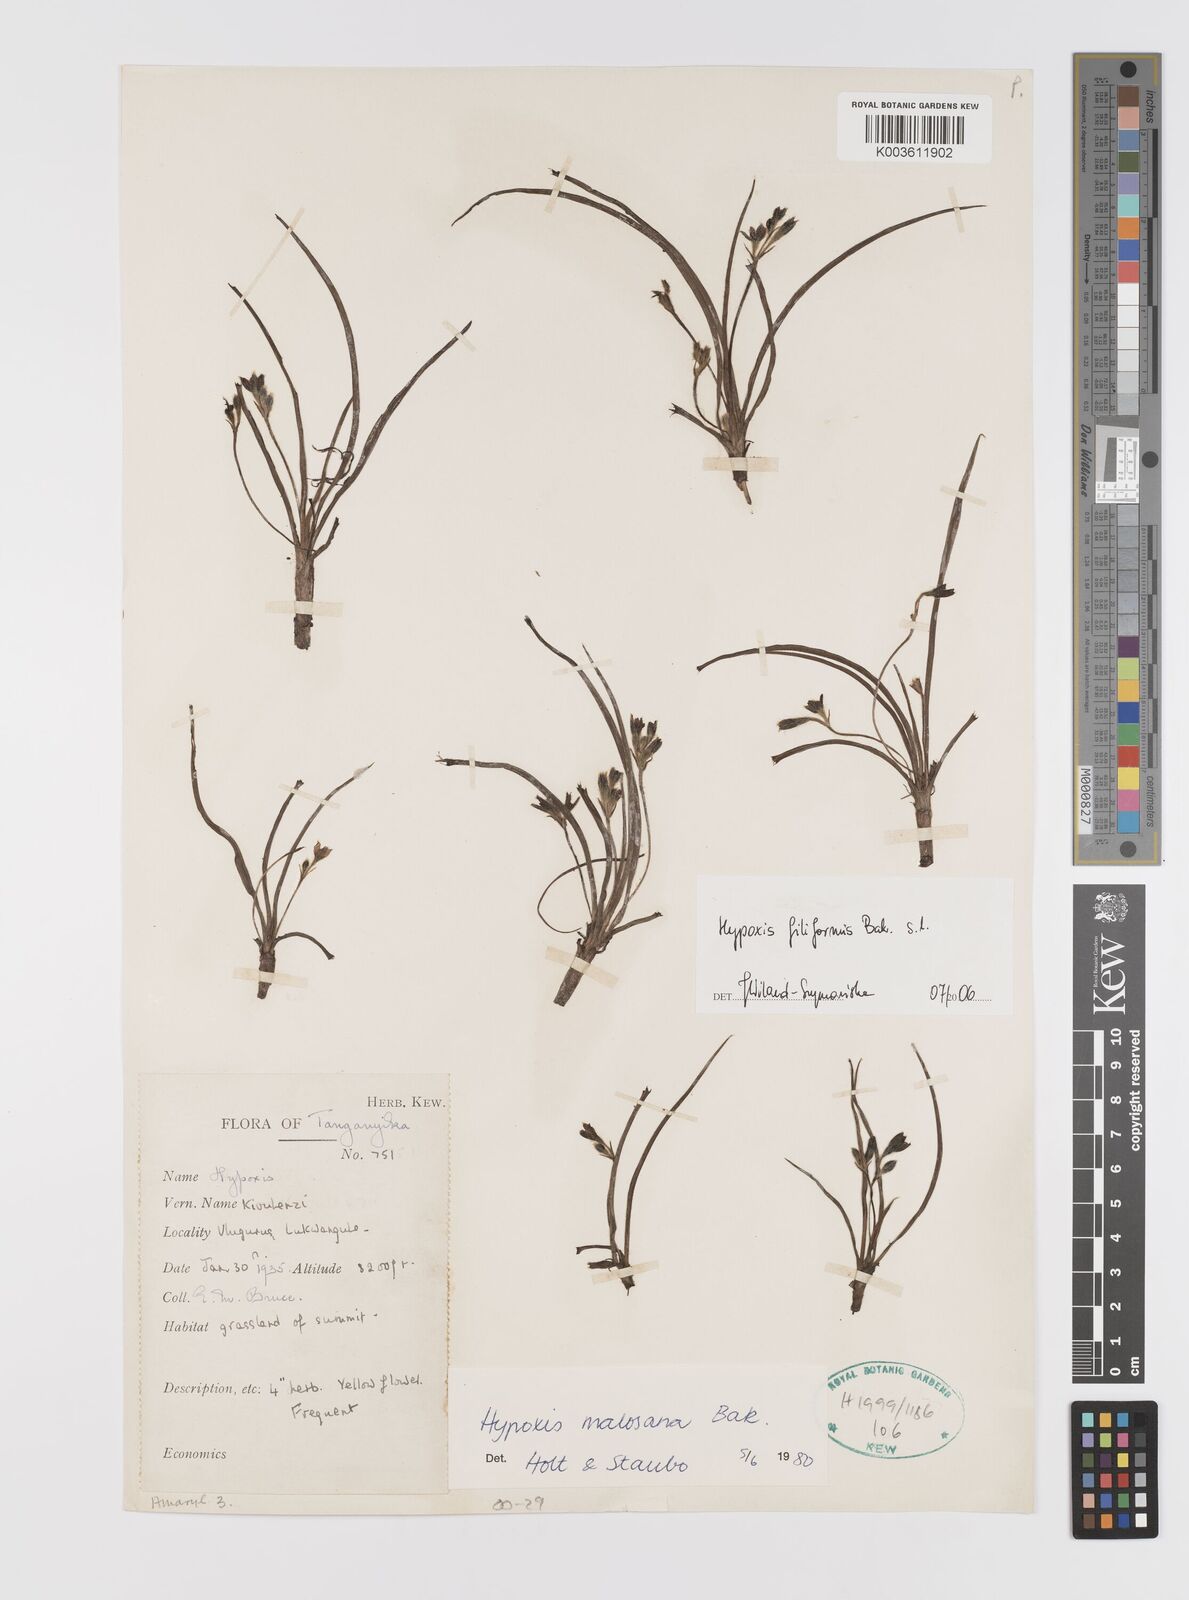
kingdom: Plantae
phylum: Tracheophyta
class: Liliopsida
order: Asparagales
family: Hypoxidaceae
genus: Hypoxis
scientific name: Hypoxis filiformis
